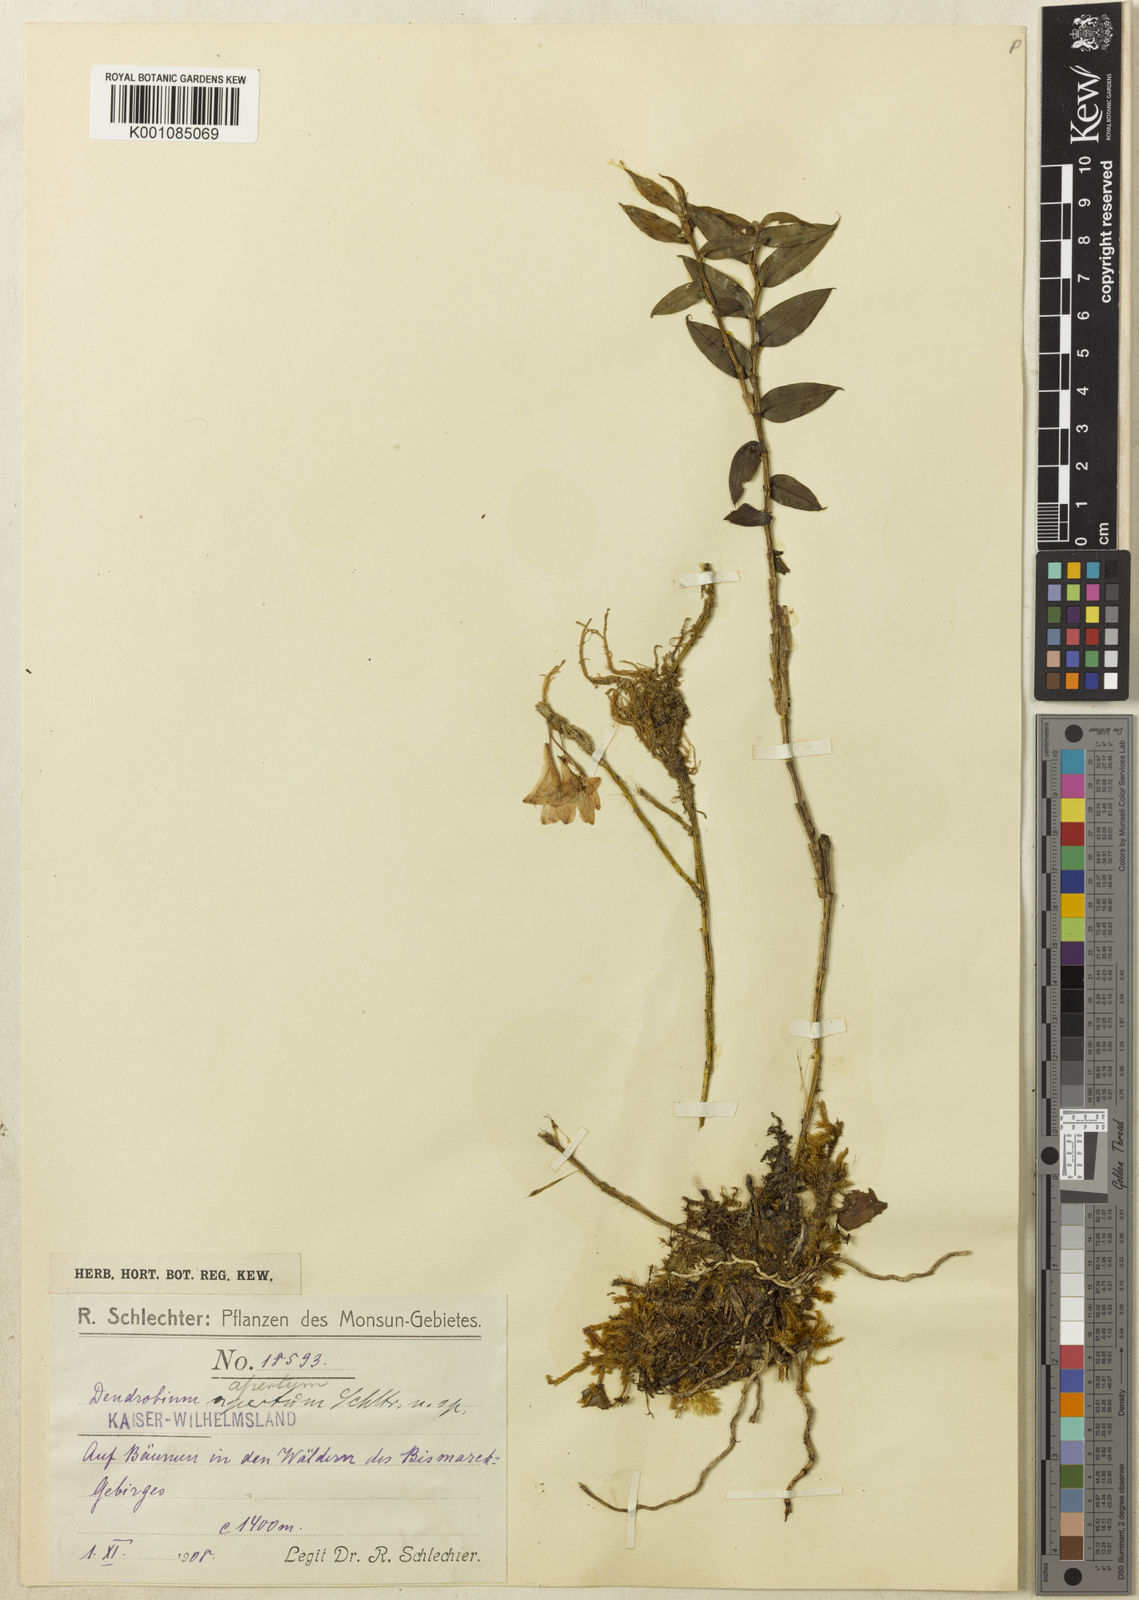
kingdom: Plantae
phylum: Tracheophyta
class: Liliopsida
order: Asparagales
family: Orchidaceae
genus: Dendrobium
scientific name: Dendrobium apertum
